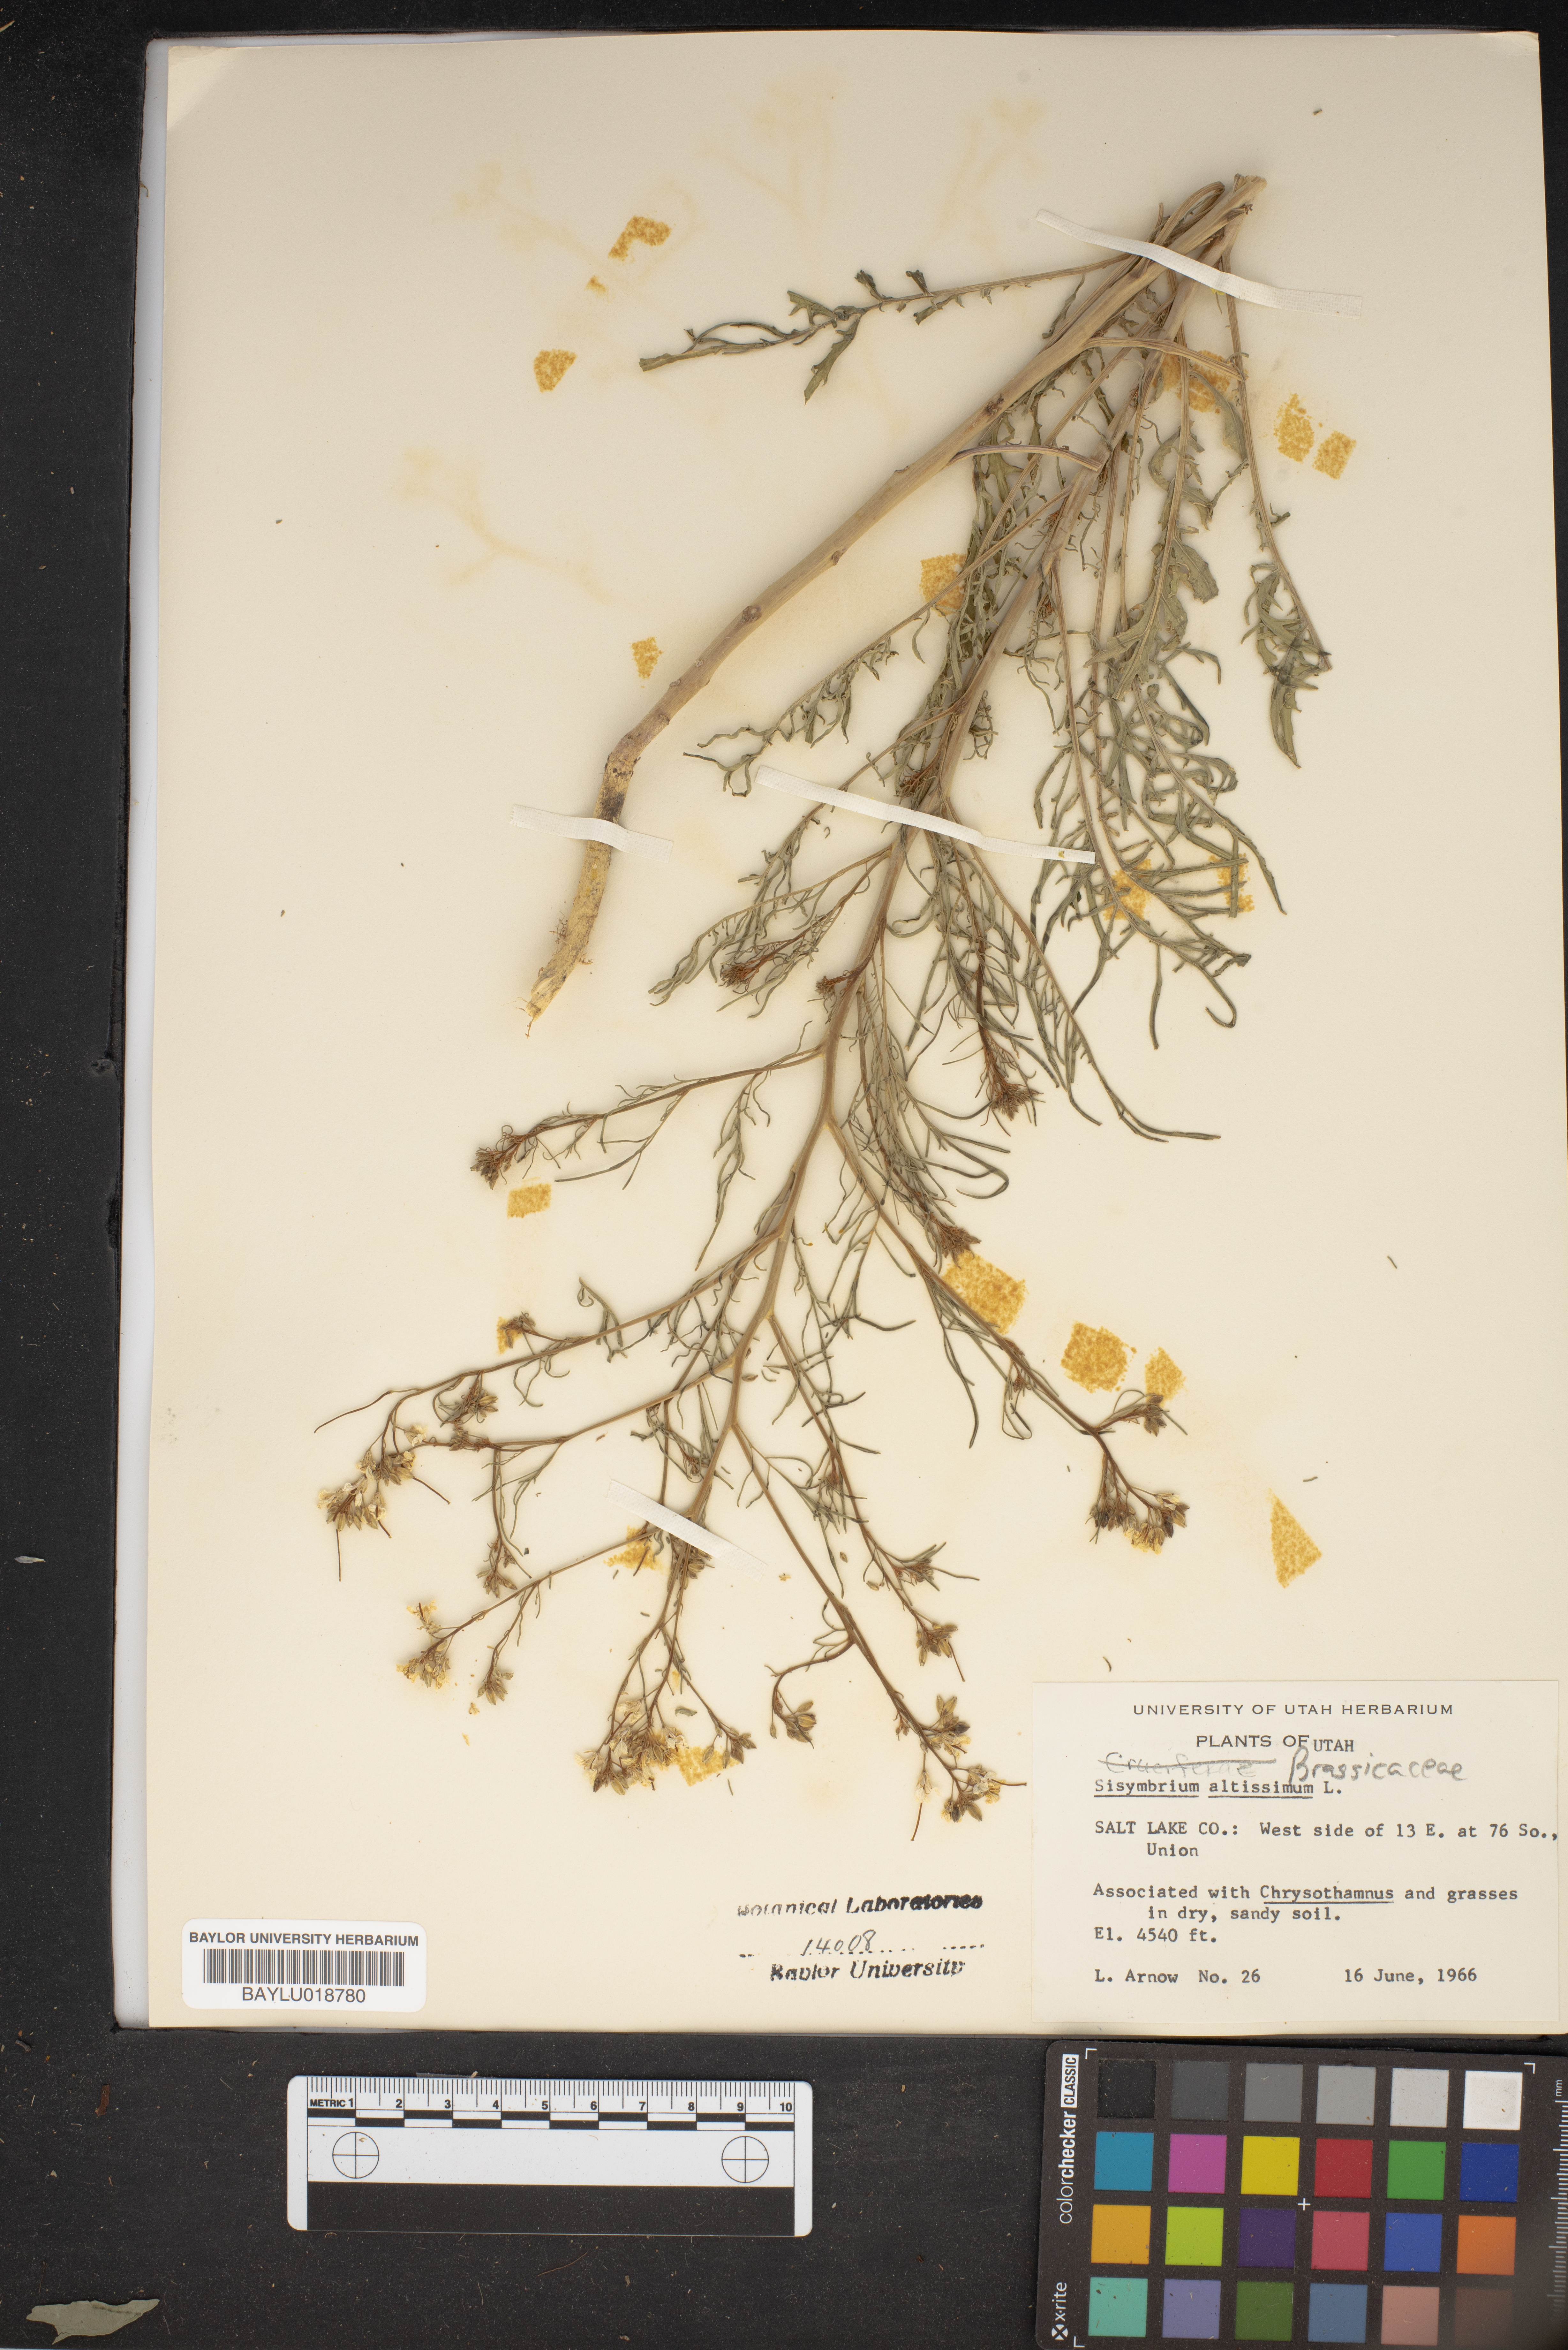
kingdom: Plantae
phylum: Tracheophyta
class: Magnoliopsida
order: Brassicales
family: Brassicaceae
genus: Sisymbrium
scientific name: Sisymbrium altissimum
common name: Tall rocket
